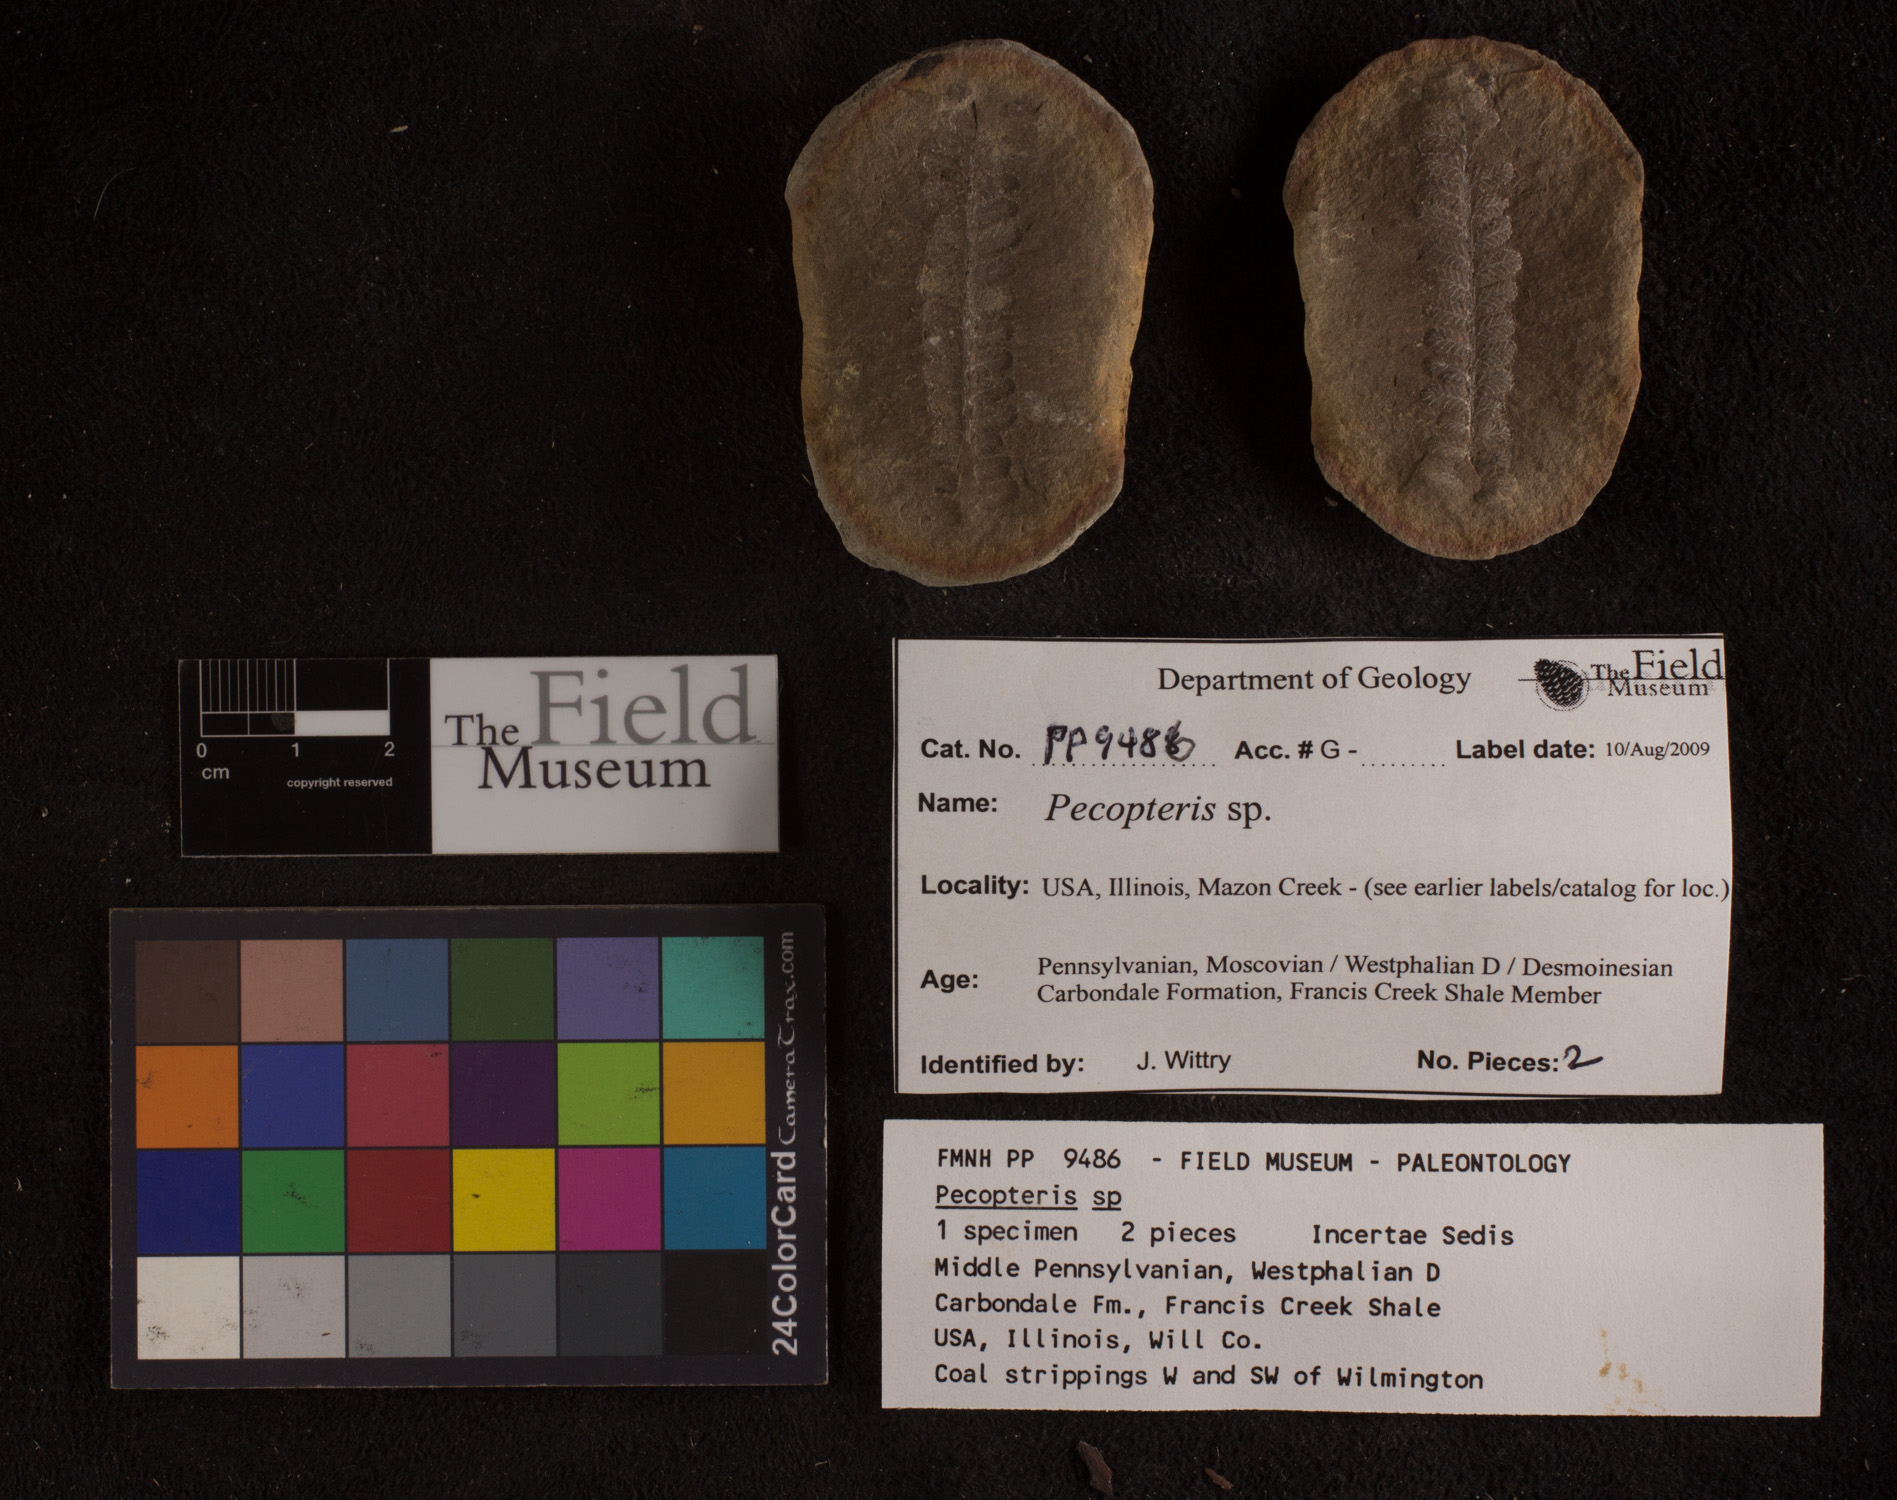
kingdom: Plantae
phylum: Tracheophyta
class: Polypodiopsida
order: Marattiales
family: Asterothecaceae
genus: Pecopteris
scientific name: Pecopteris
